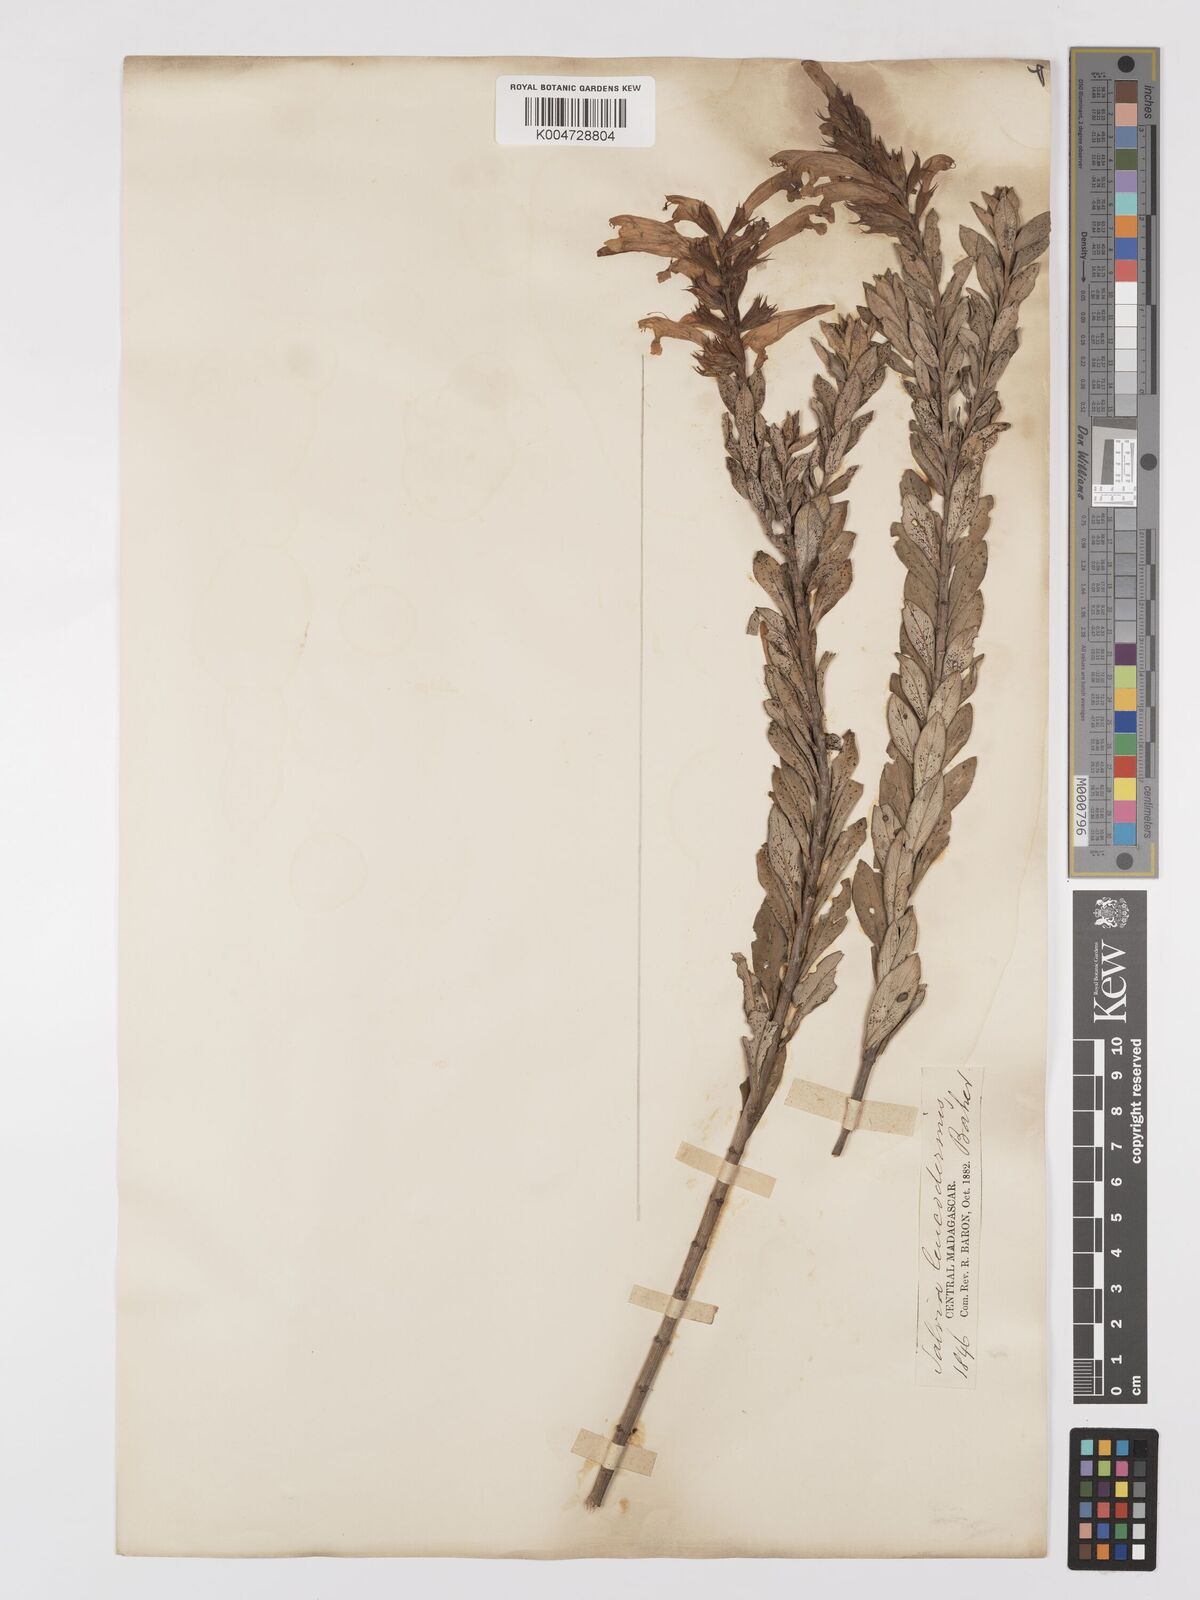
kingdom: Plantae
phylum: Tracheophyta
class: Magnoliopsida
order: Lamiales
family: Lamiaceae
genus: Salvia
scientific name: Salvia leucodermis
